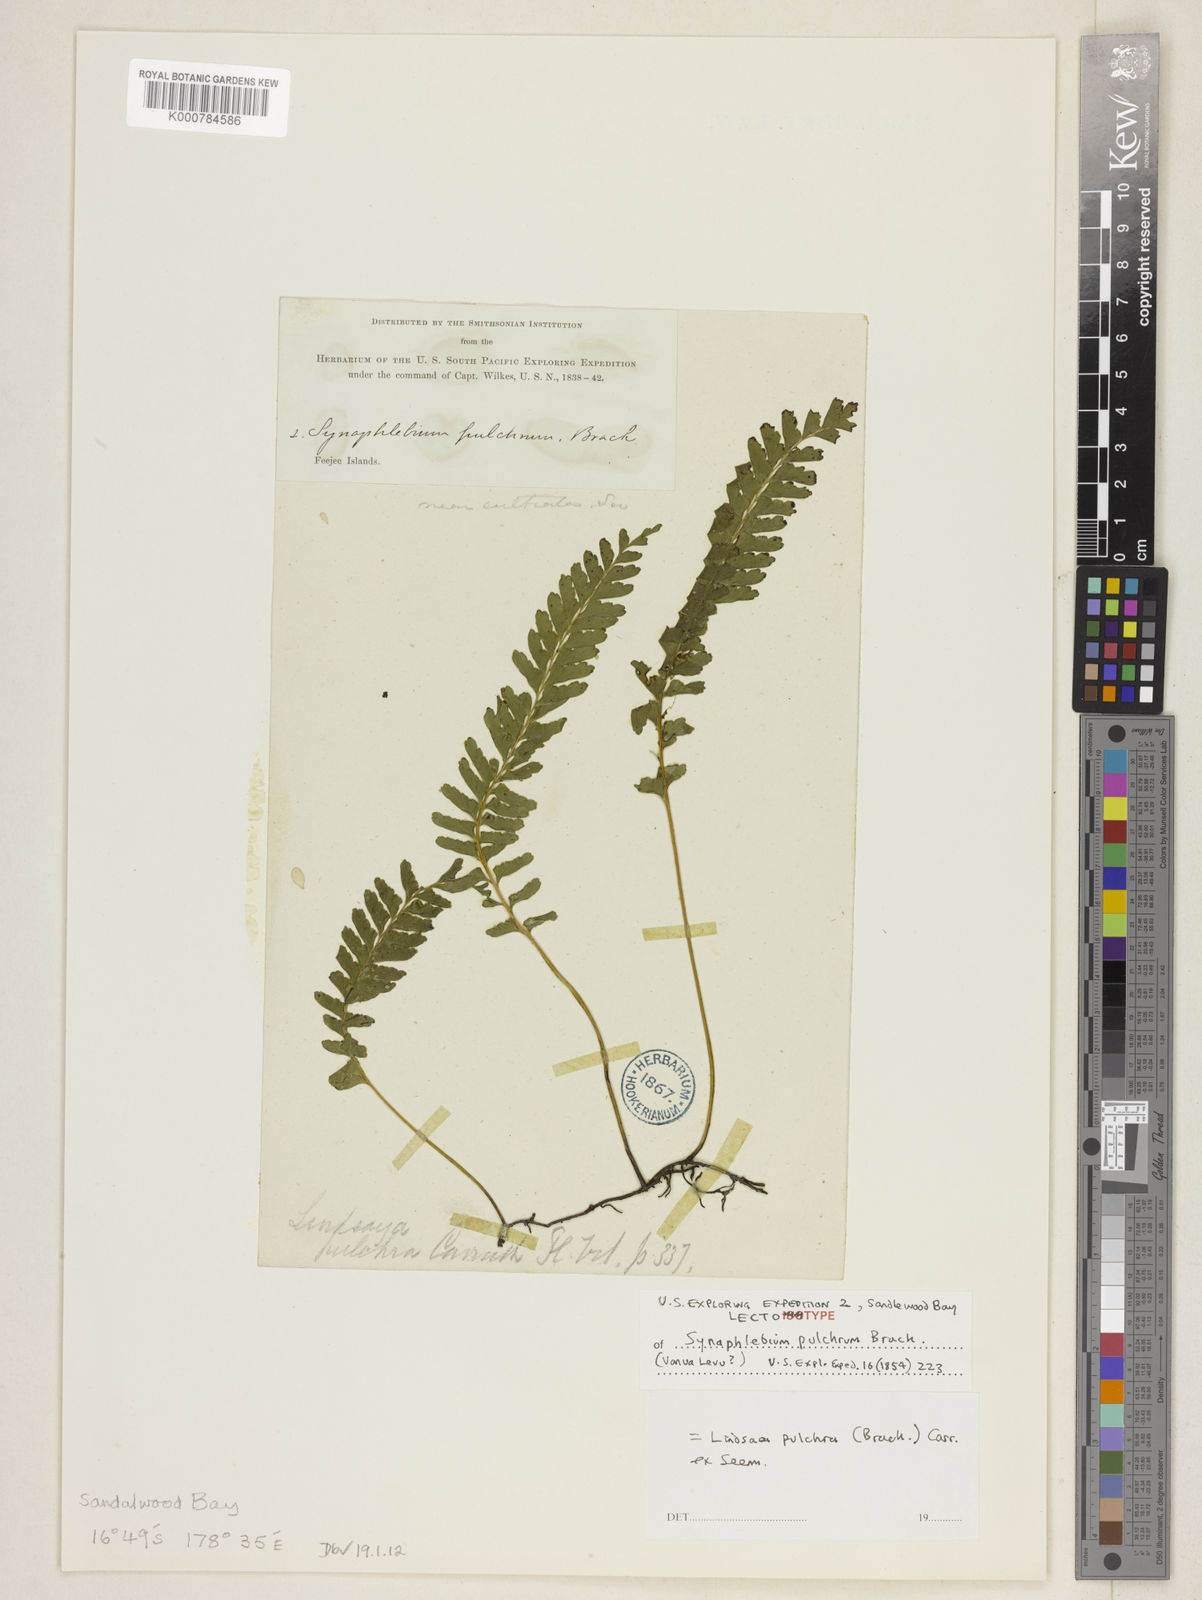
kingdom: Plantae
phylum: Tracheophyta
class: Polypodiopsida
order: Polypodiales
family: Lindsaeaceae
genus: Lindsaea
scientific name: Lindsaea
